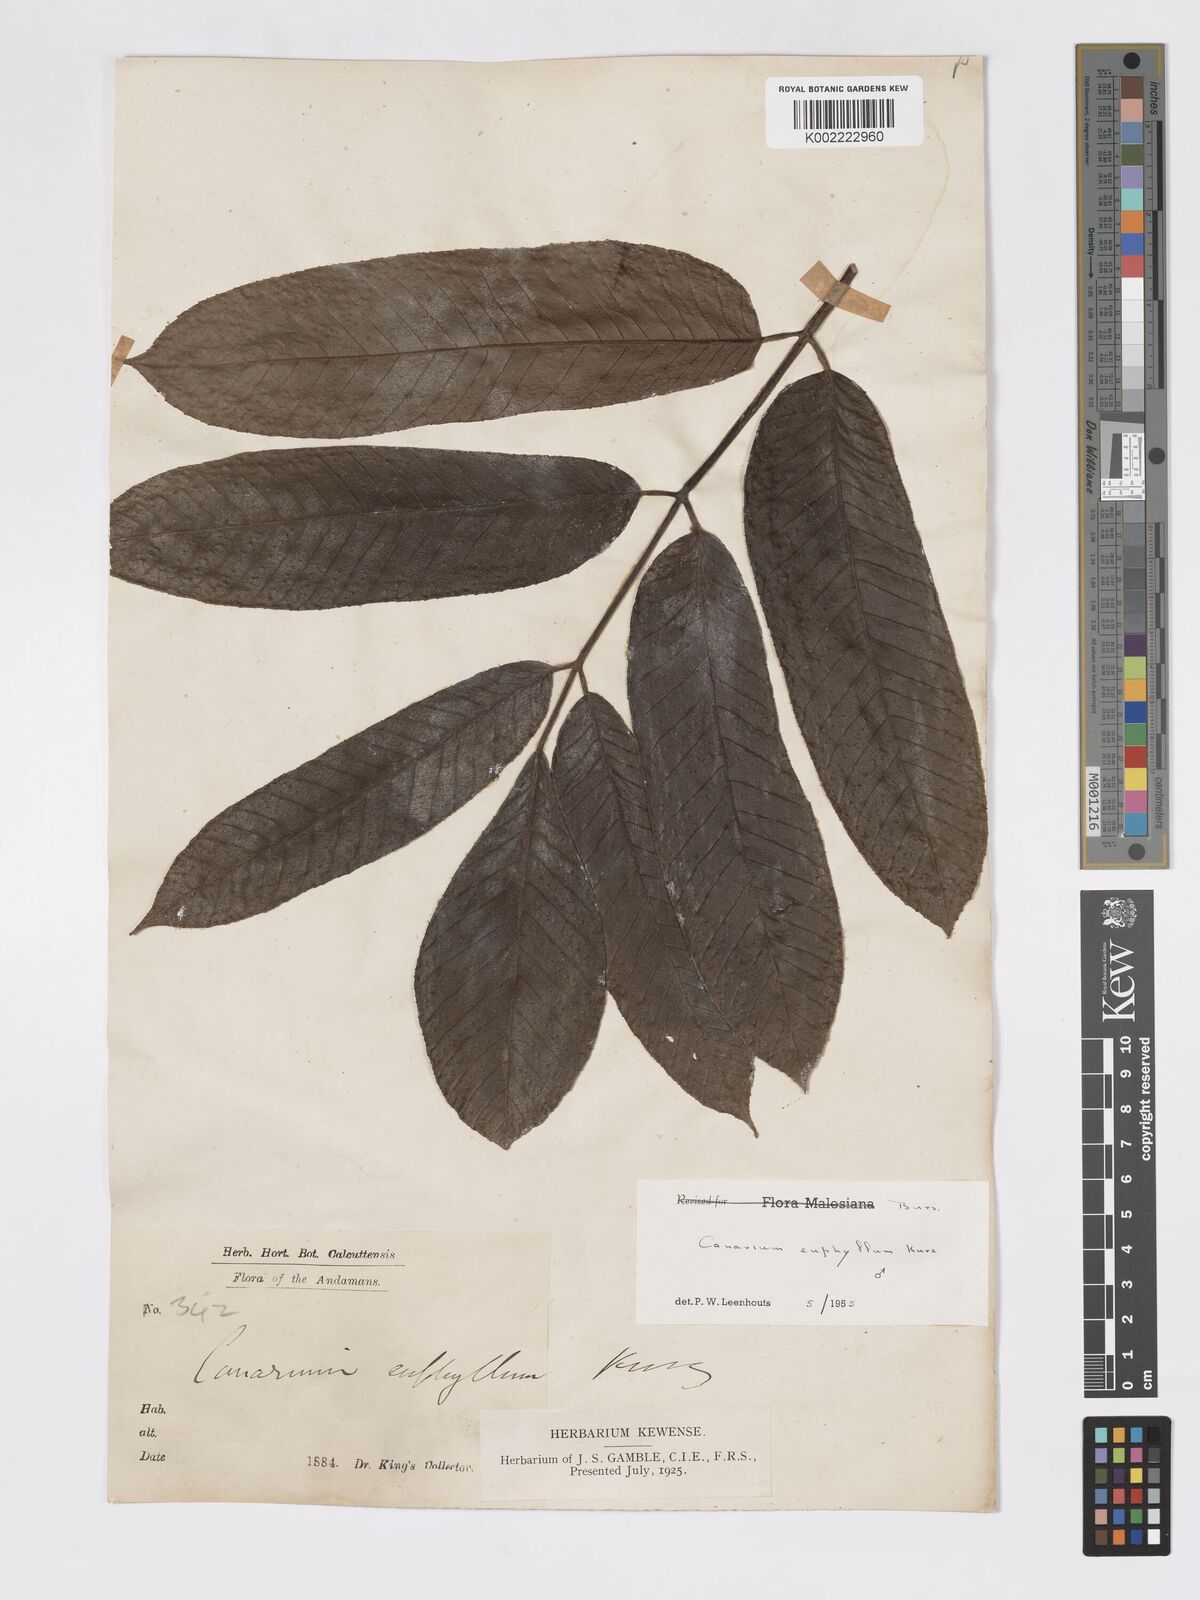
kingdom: Plantae
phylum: Tracheophyta
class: Magnoliopsida
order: Sapindales
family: Burseraceae
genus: Canarium
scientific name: Canarium euphyllum
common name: White dhup
